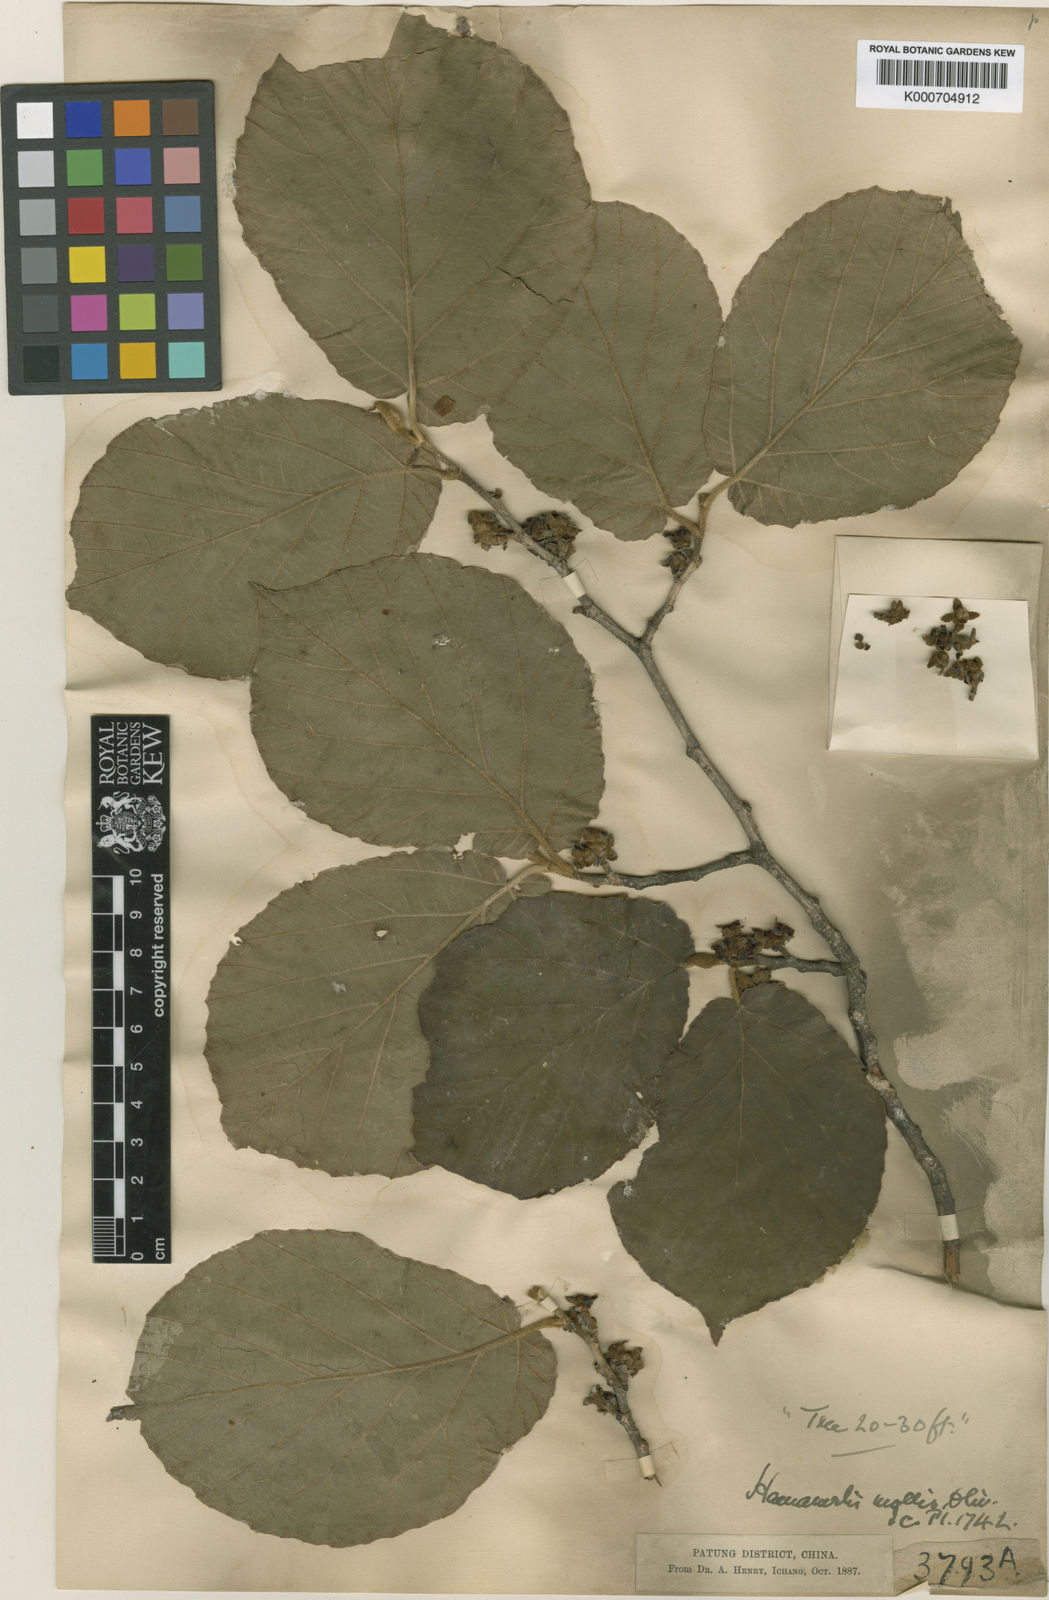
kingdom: Plantae
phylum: Tracheophyta
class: Magnoliopsida
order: Saxifragales
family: Hamamelidaceae
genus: Hamamelis
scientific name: Hamamelis
